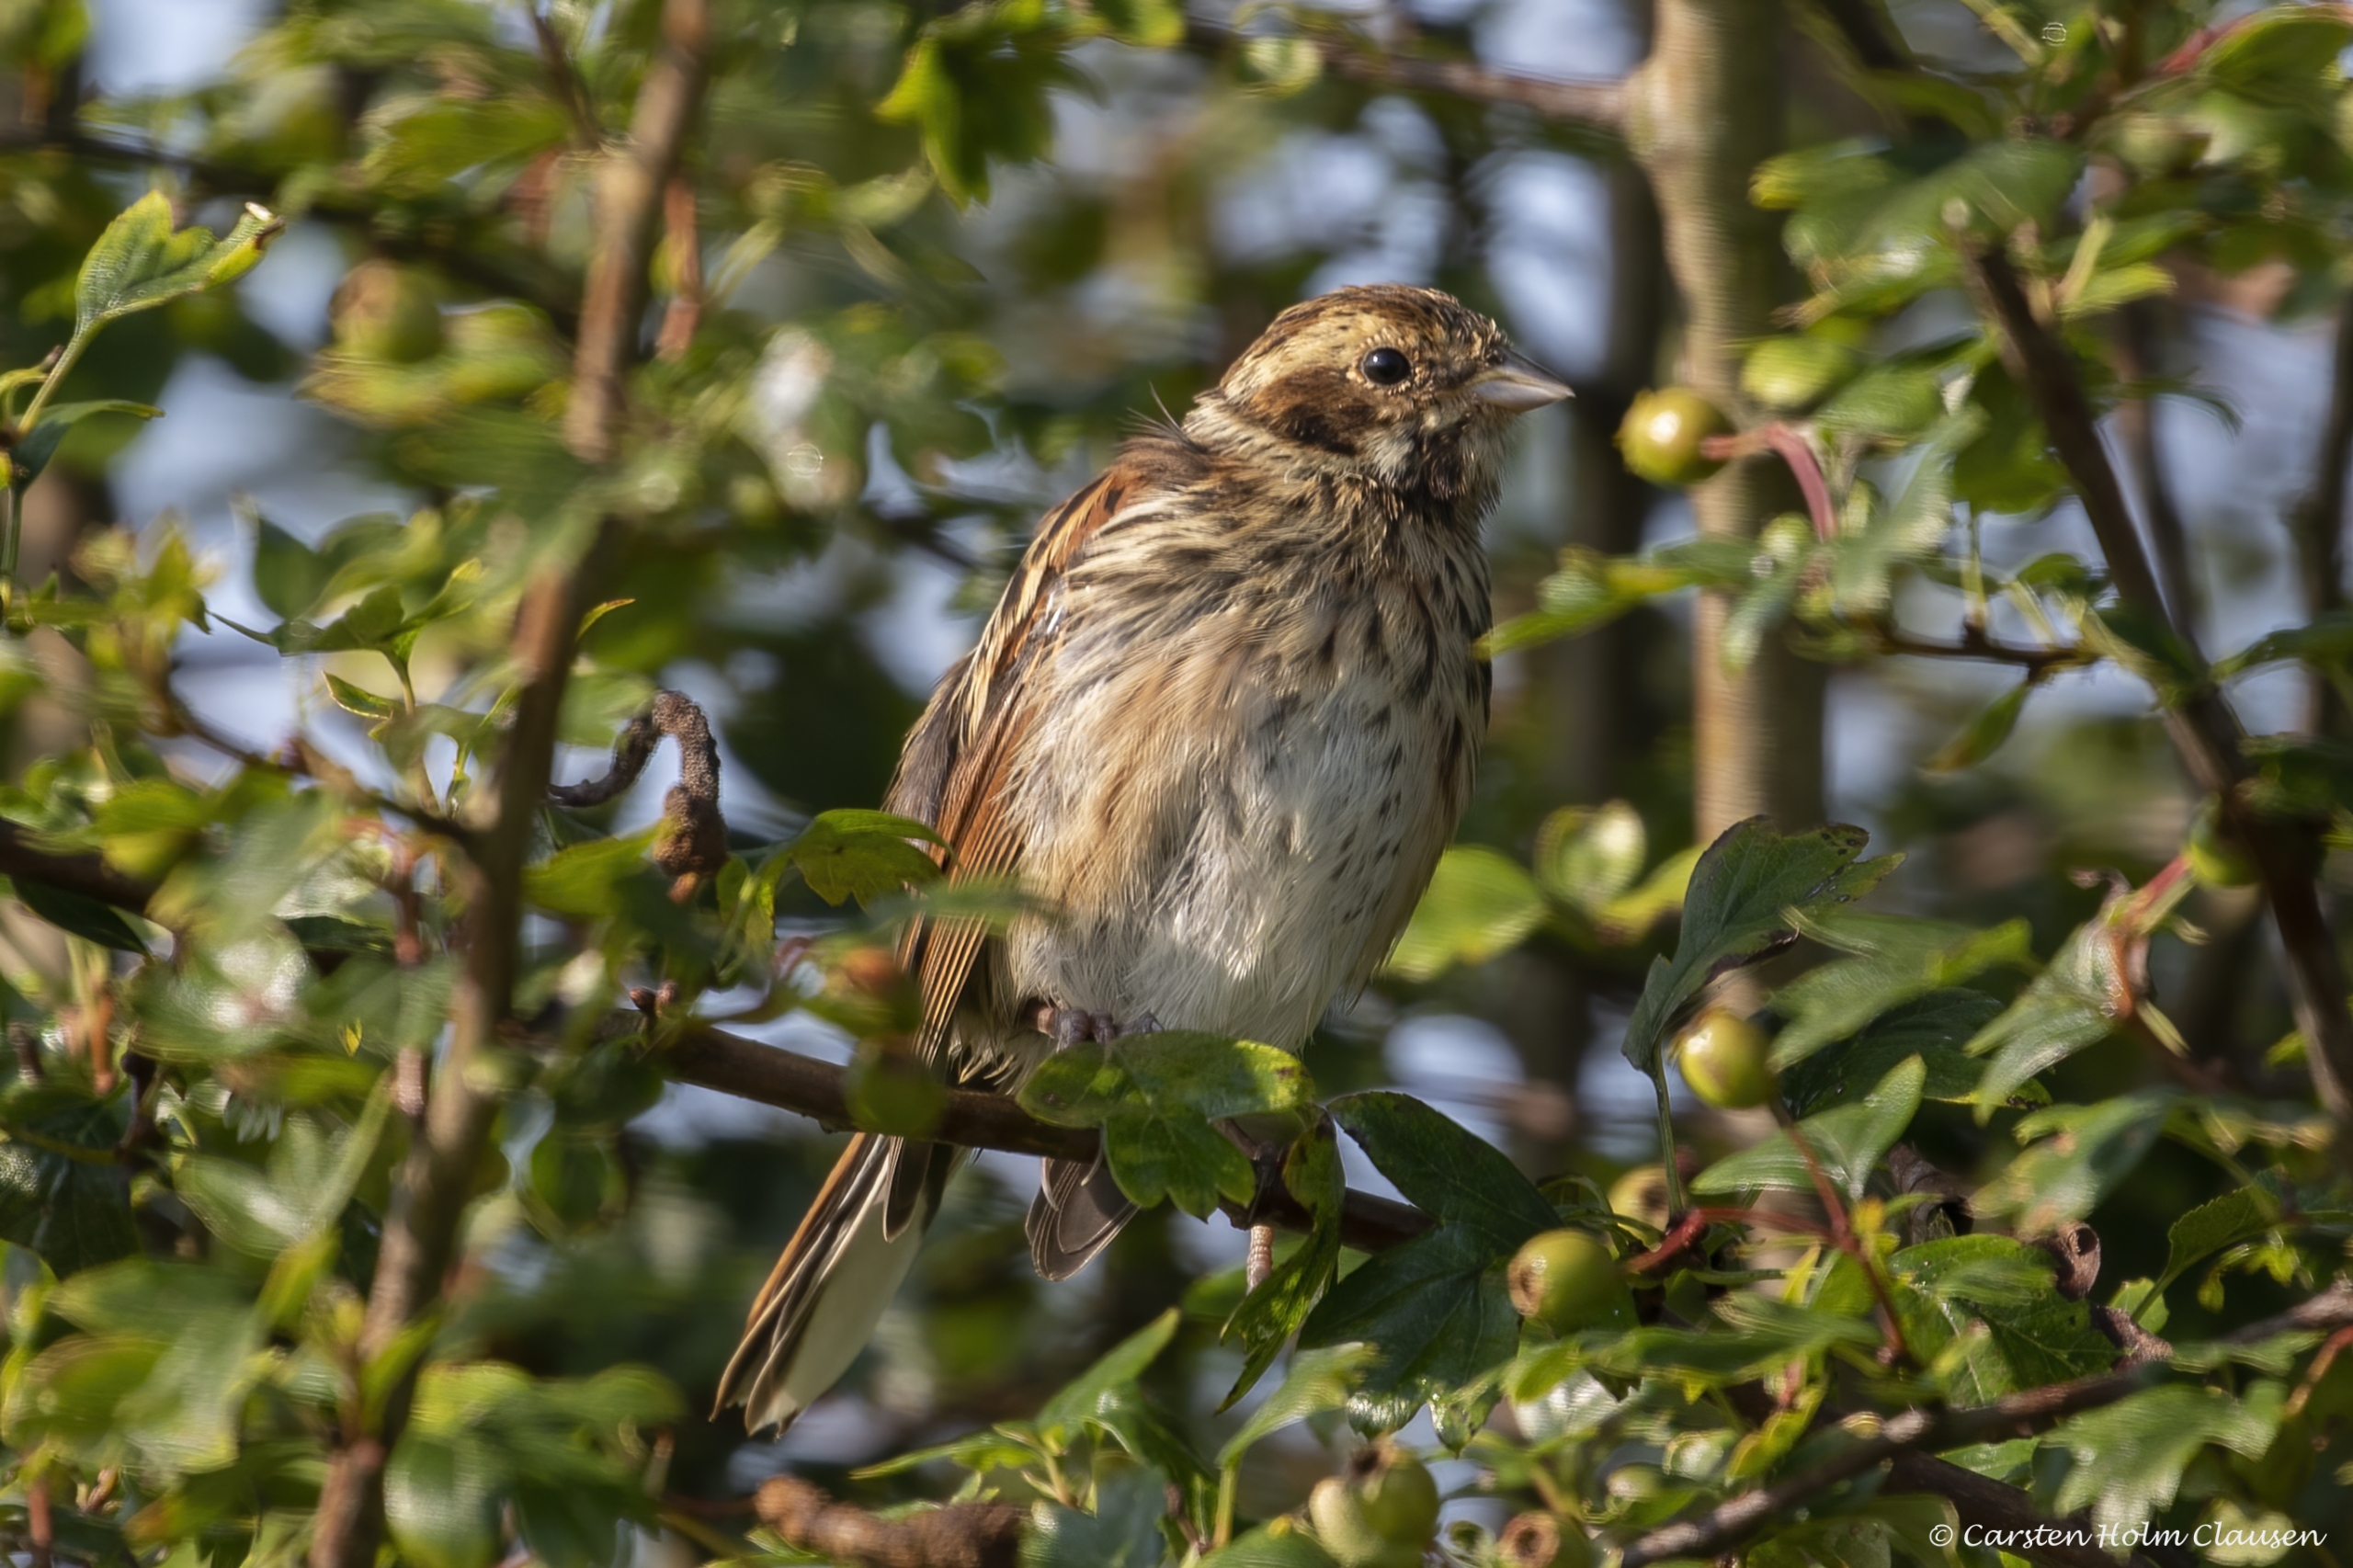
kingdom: Animalia
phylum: Chordata
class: Aves
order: Passeriformes
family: Emberizidae
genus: Emberiza
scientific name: Emberiza schoeniclus
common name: Rørspurv
